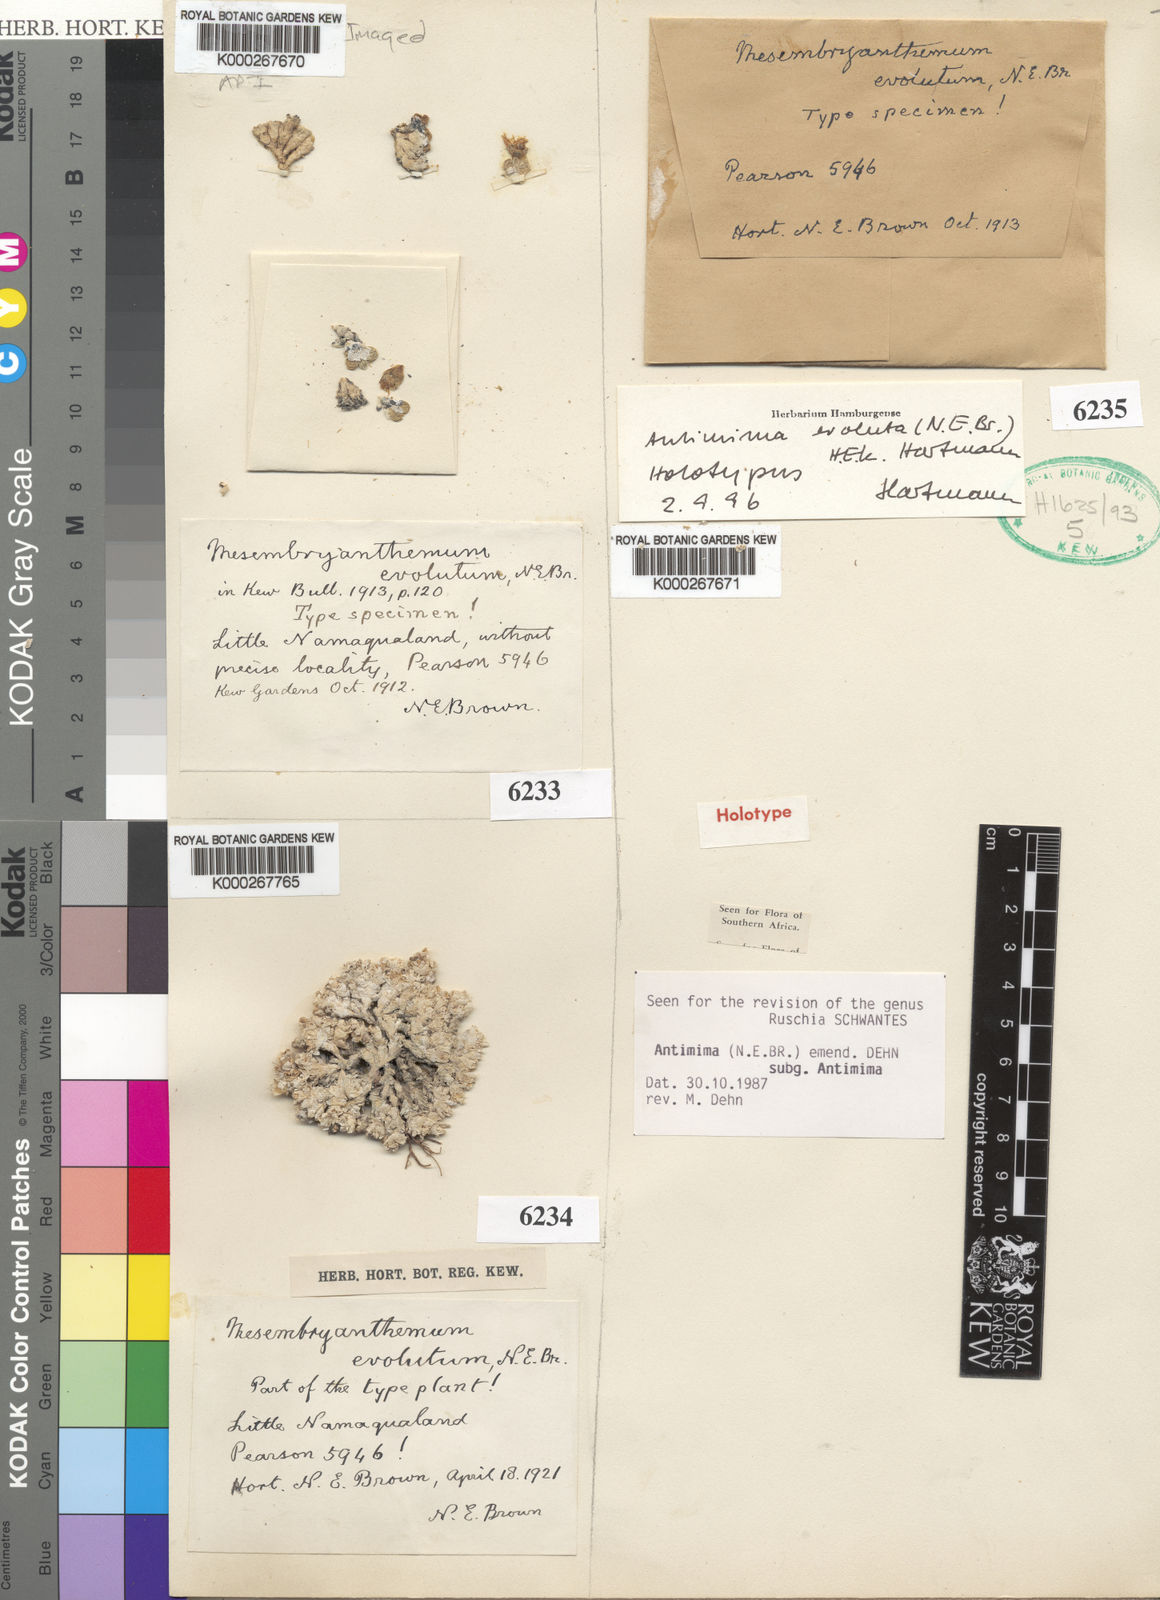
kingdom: Plantae
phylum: Tracheophyta
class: Magnoliopsida
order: Caryophyllales
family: Aizoaceae
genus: Antimima
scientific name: Antimima evoluta
